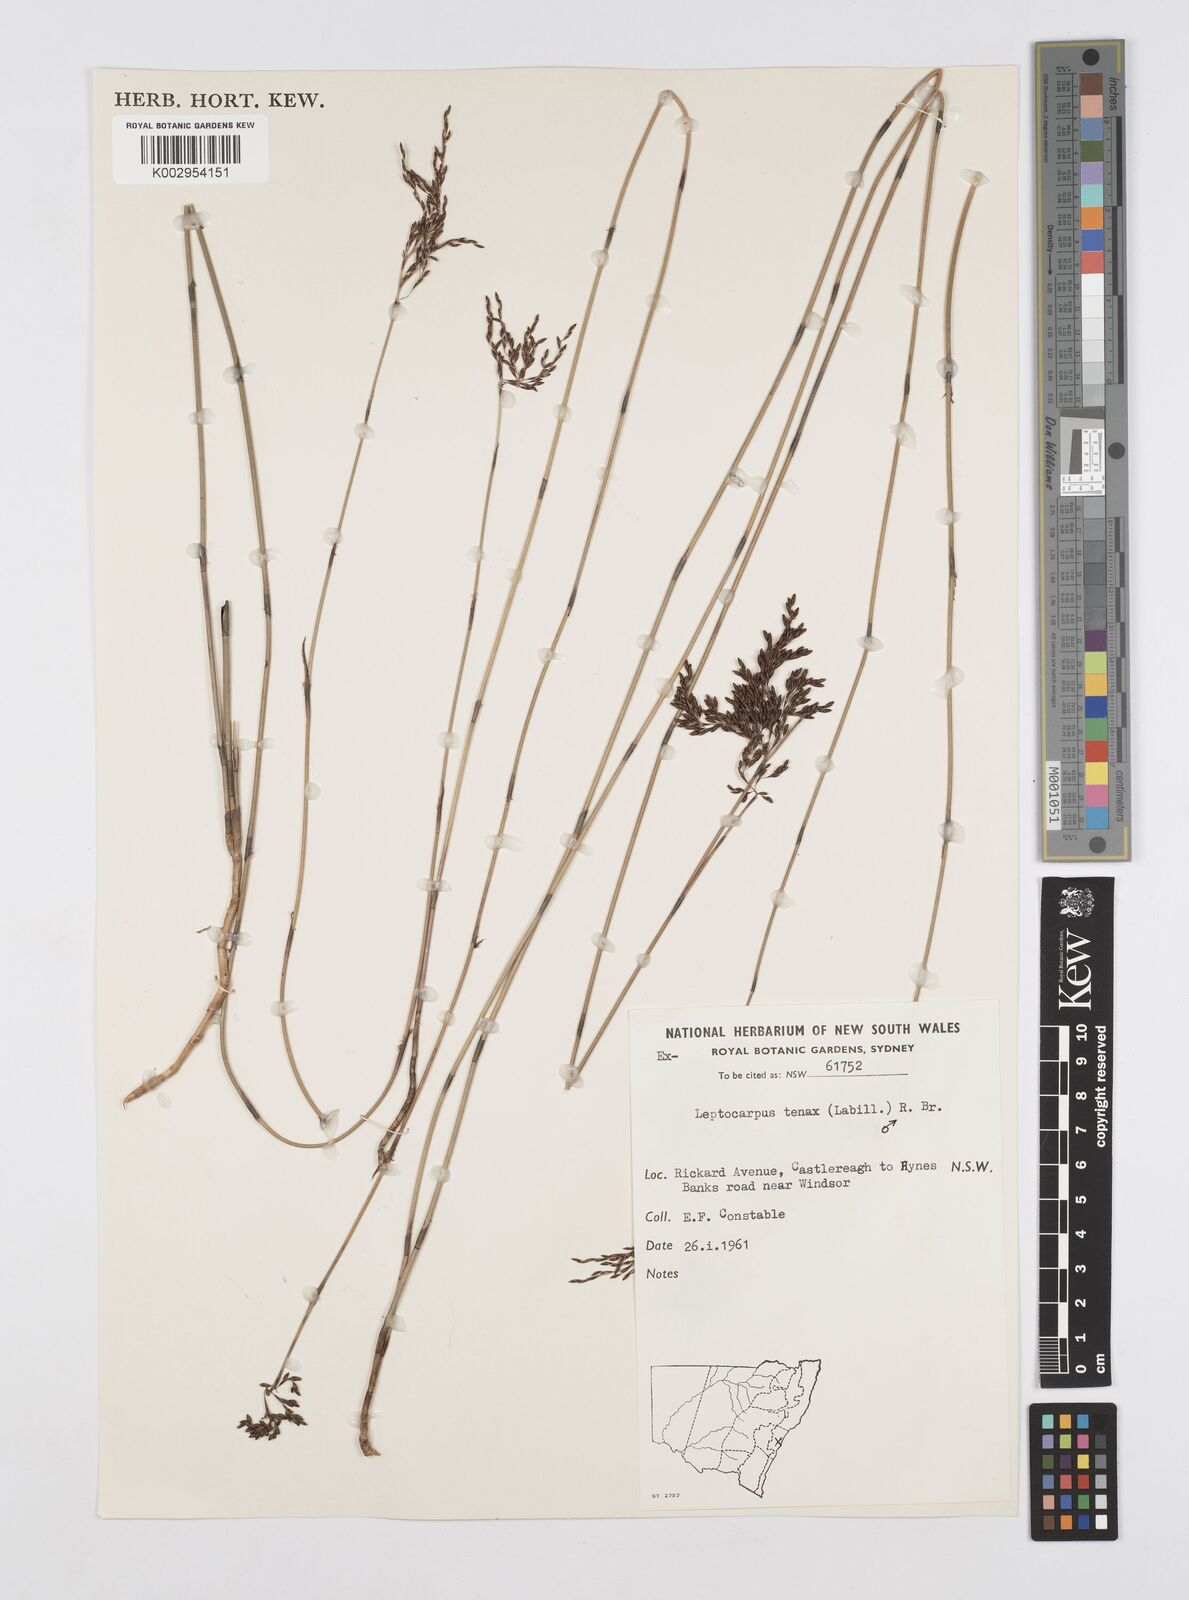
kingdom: Plantae
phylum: Tracheophyta
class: Liliopsida
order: Poales
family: Restionaceae
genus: Leptocarpus
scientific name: Leptocarpus tenax
